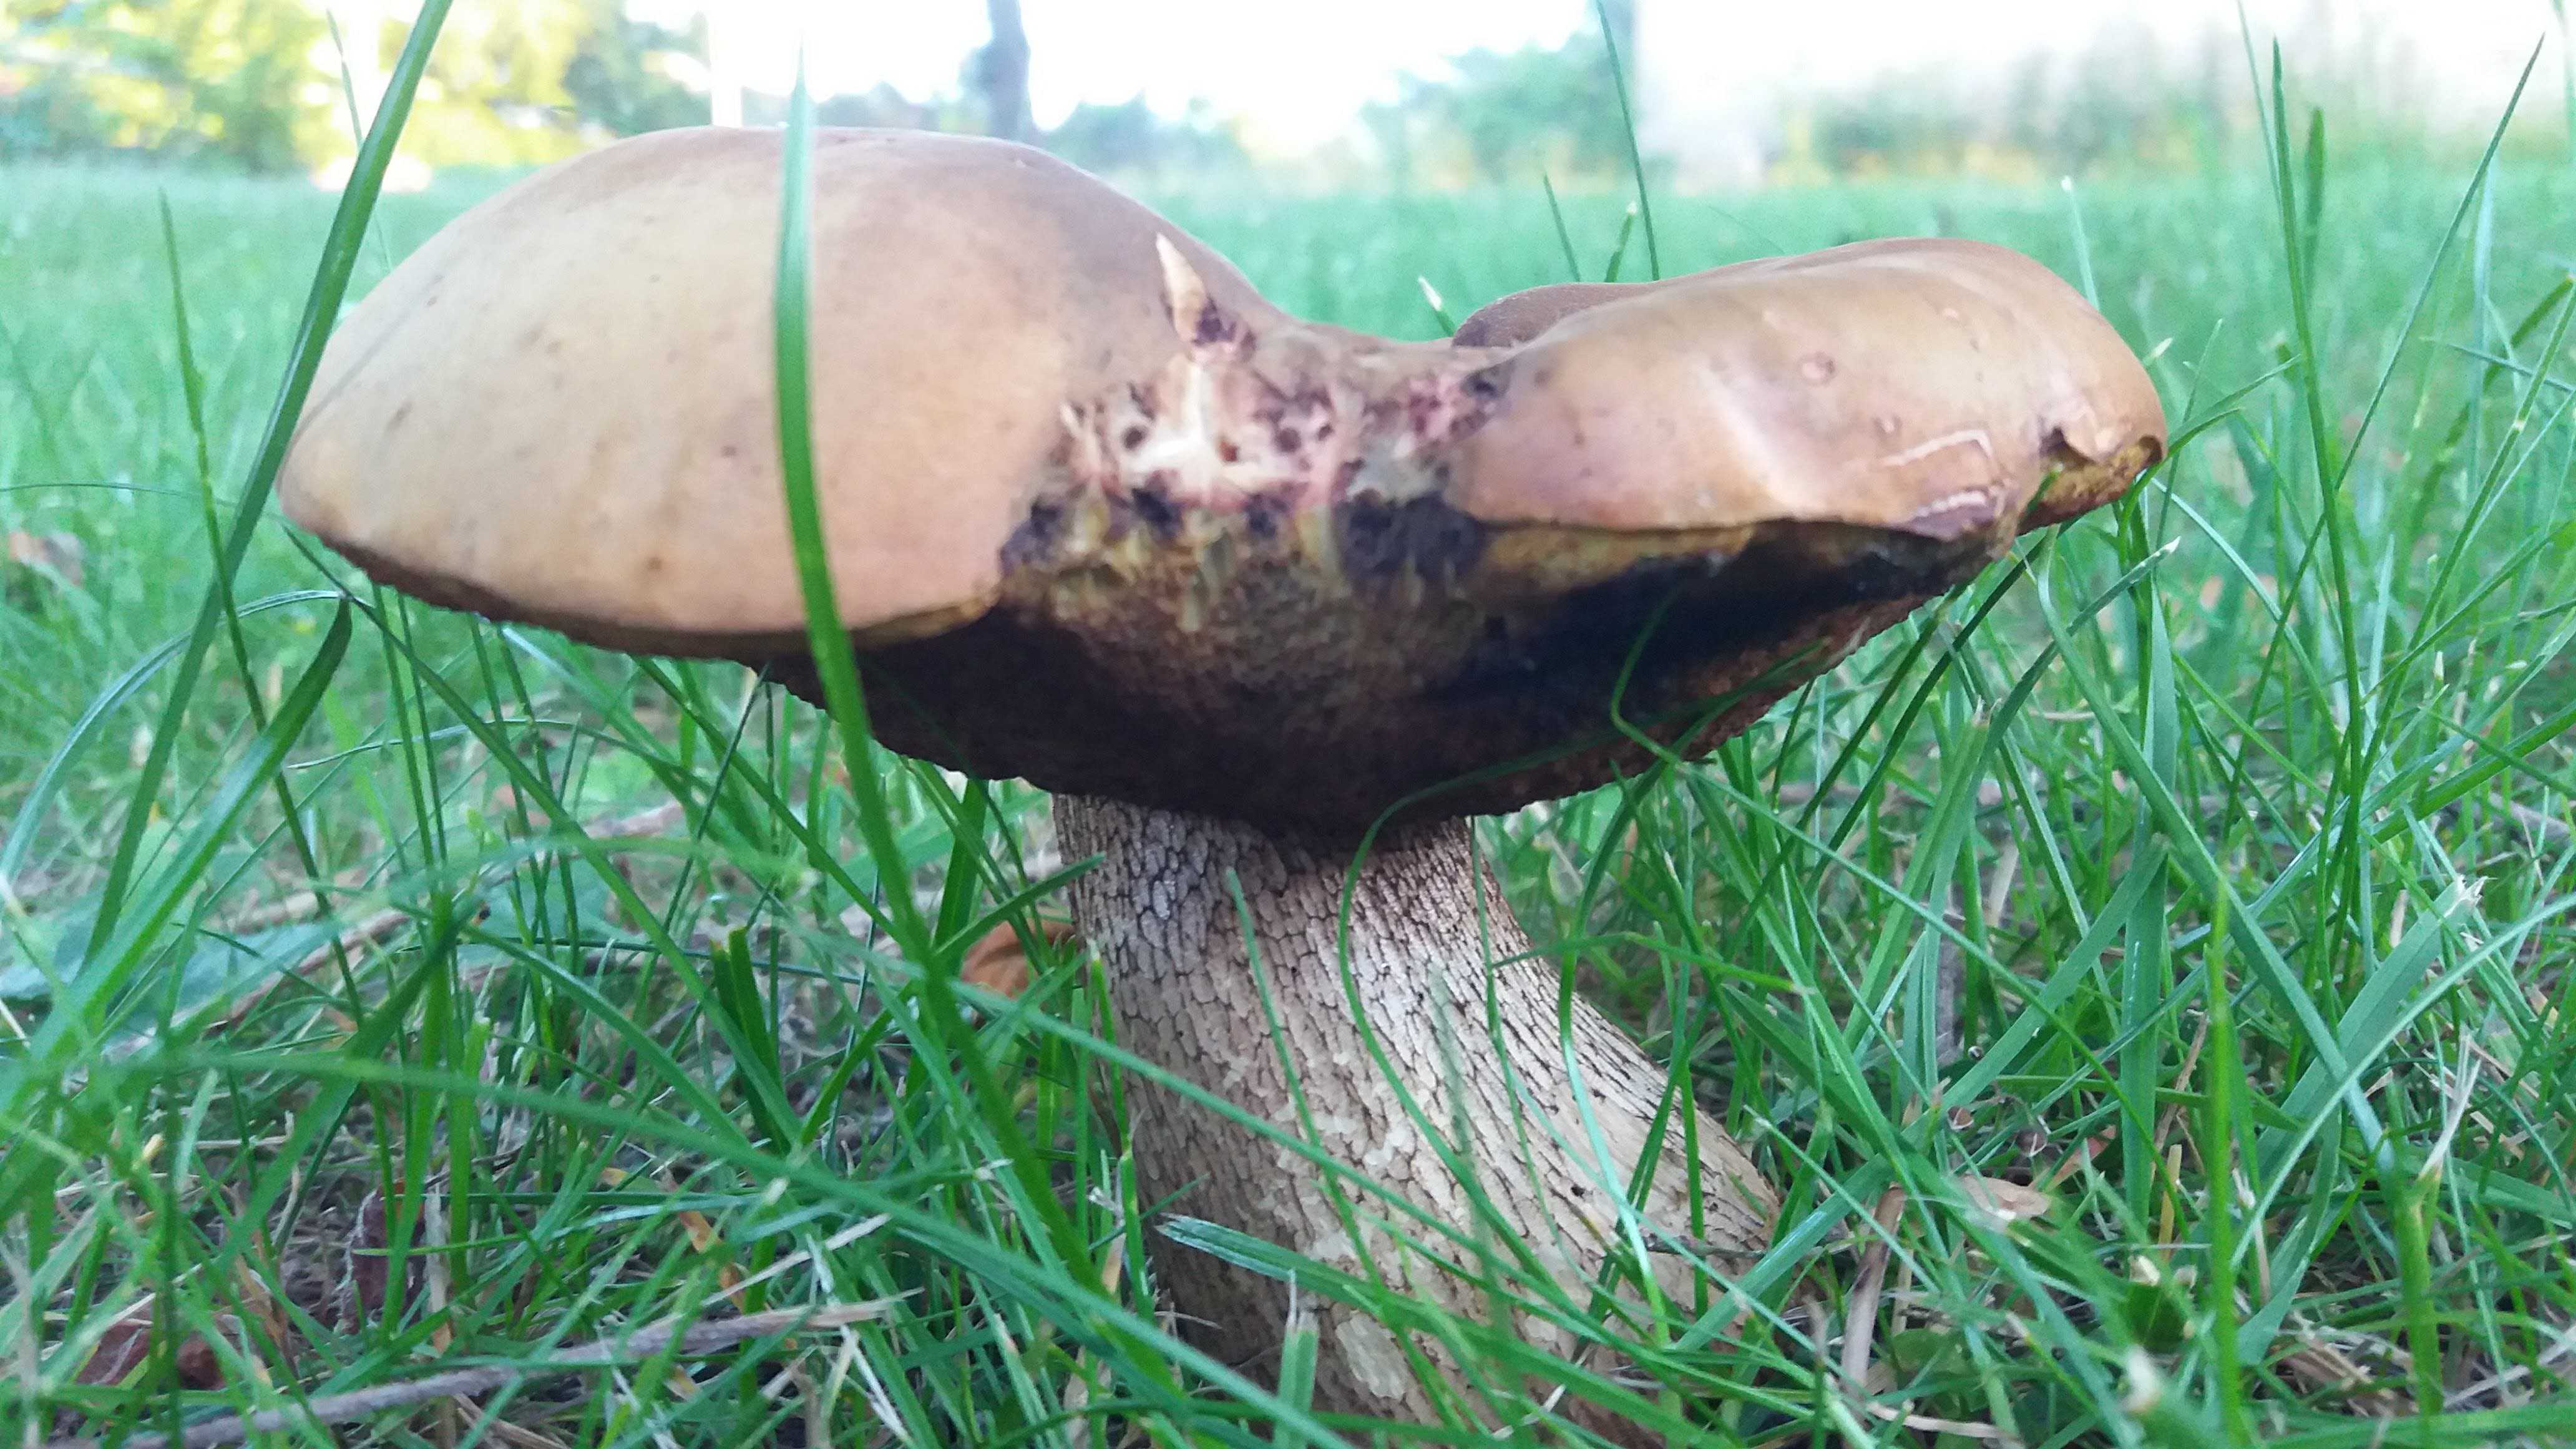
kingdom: Fungi
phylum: Basidiomycota
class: Agaricomycetes
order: Boletales
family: Boletaceae
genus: Leccinum
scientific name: Leccinum
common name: skælrørhat
